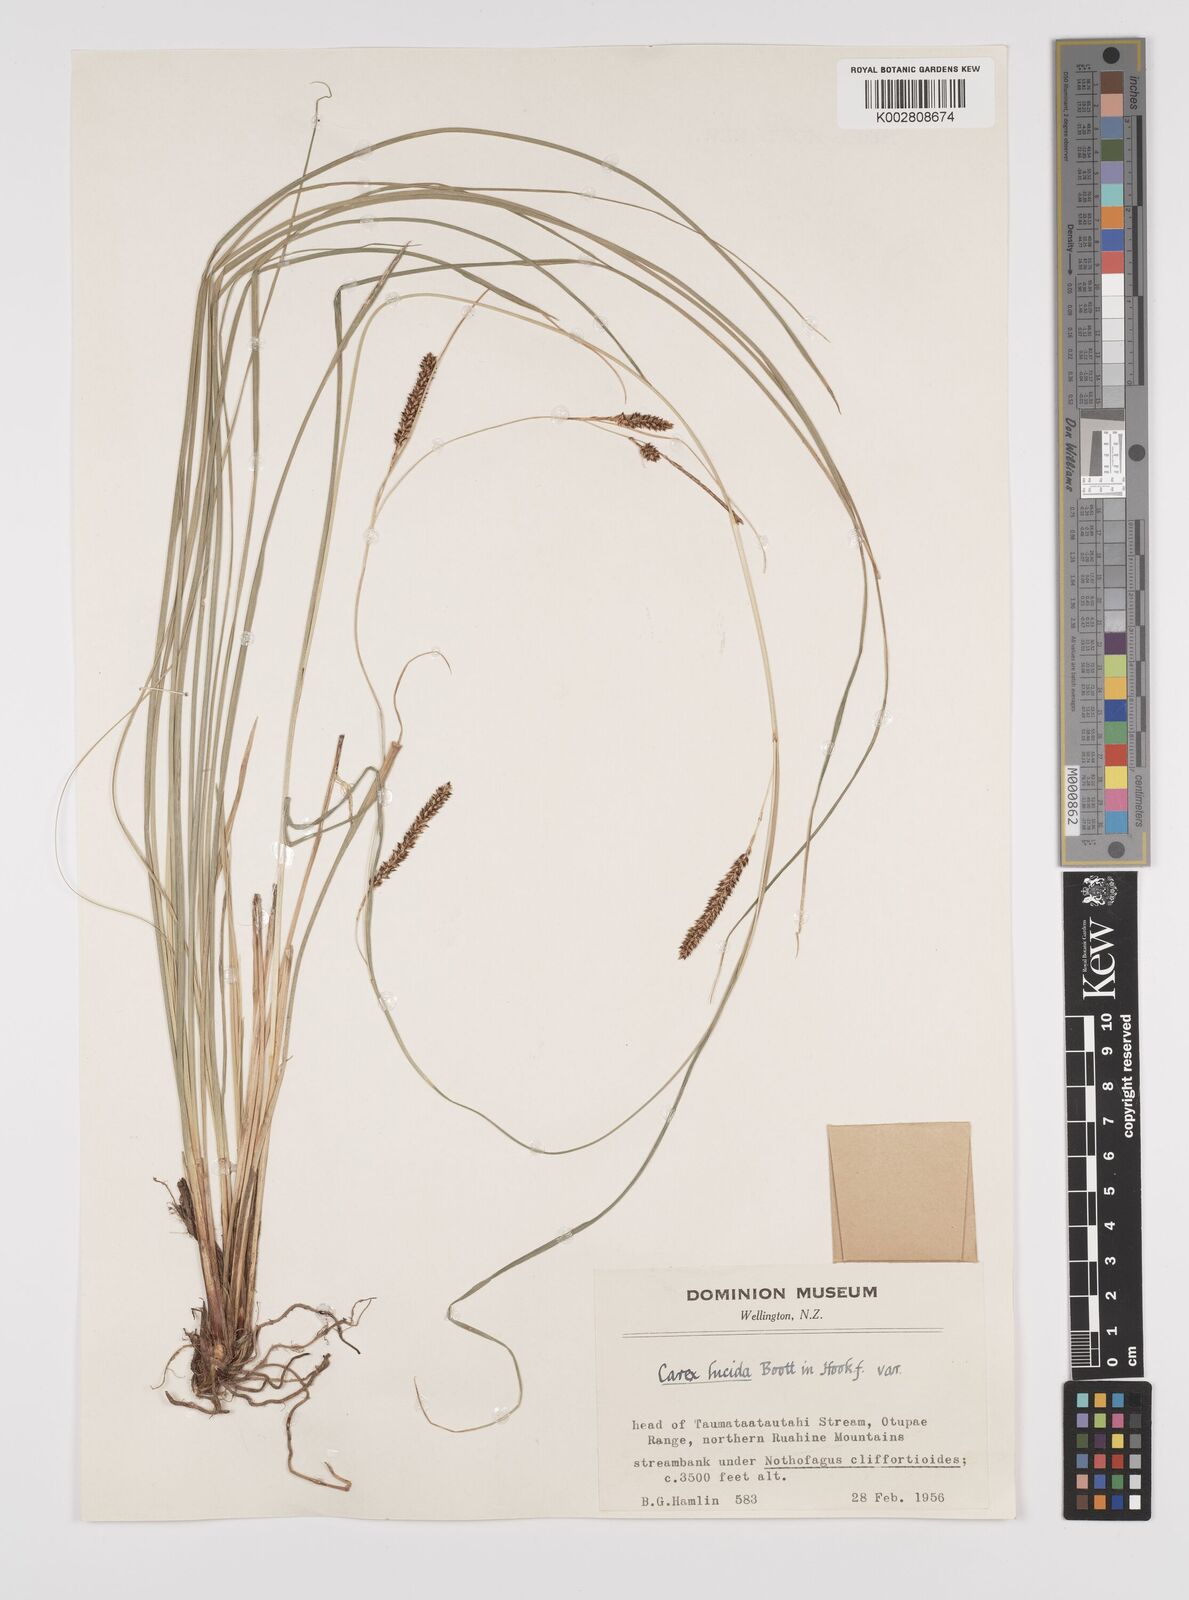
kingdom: Plantae
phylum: Tracheophyta
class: Liliopsida
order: Poales
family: Cyperaceae
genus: Carex
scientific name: Carex flagellifera
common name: Glen murray tussock
